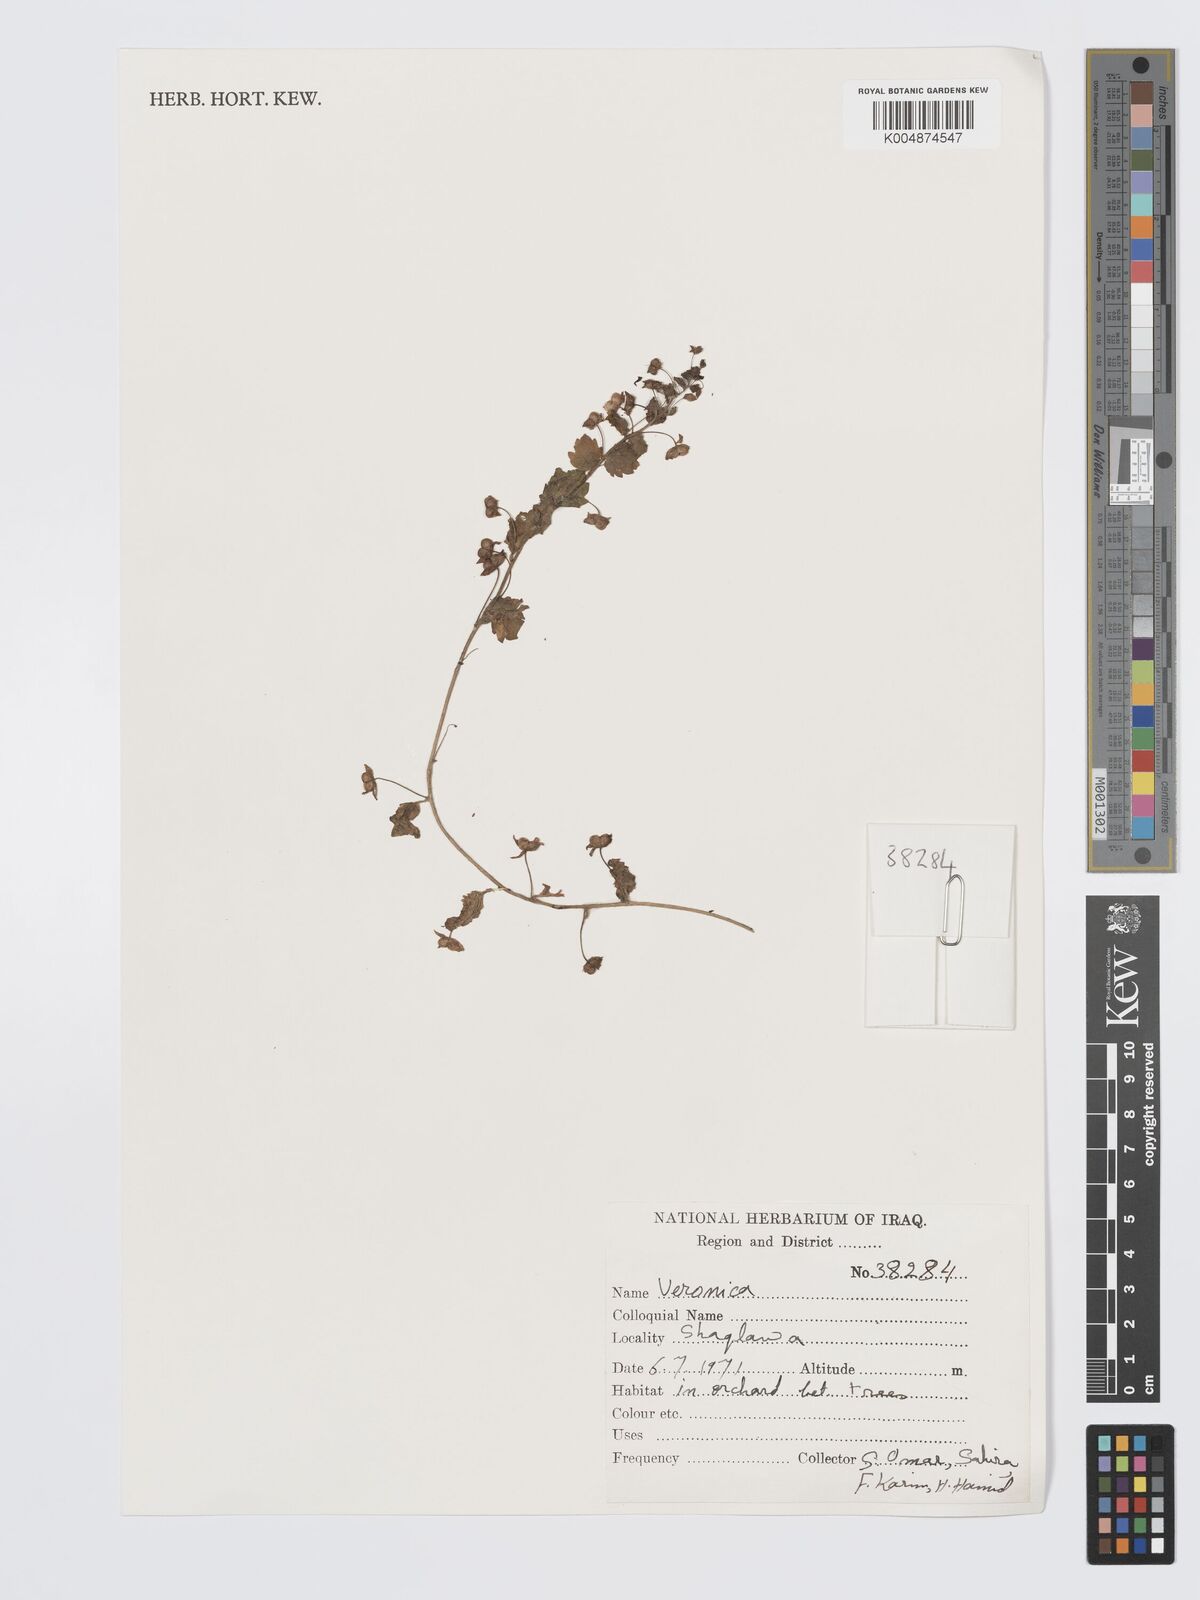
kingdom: Plantae
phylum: Tracheophyta
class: Magnoliopsida
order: Lamiales
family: Plantaginaceae
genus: Veronica
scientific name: Veronica
